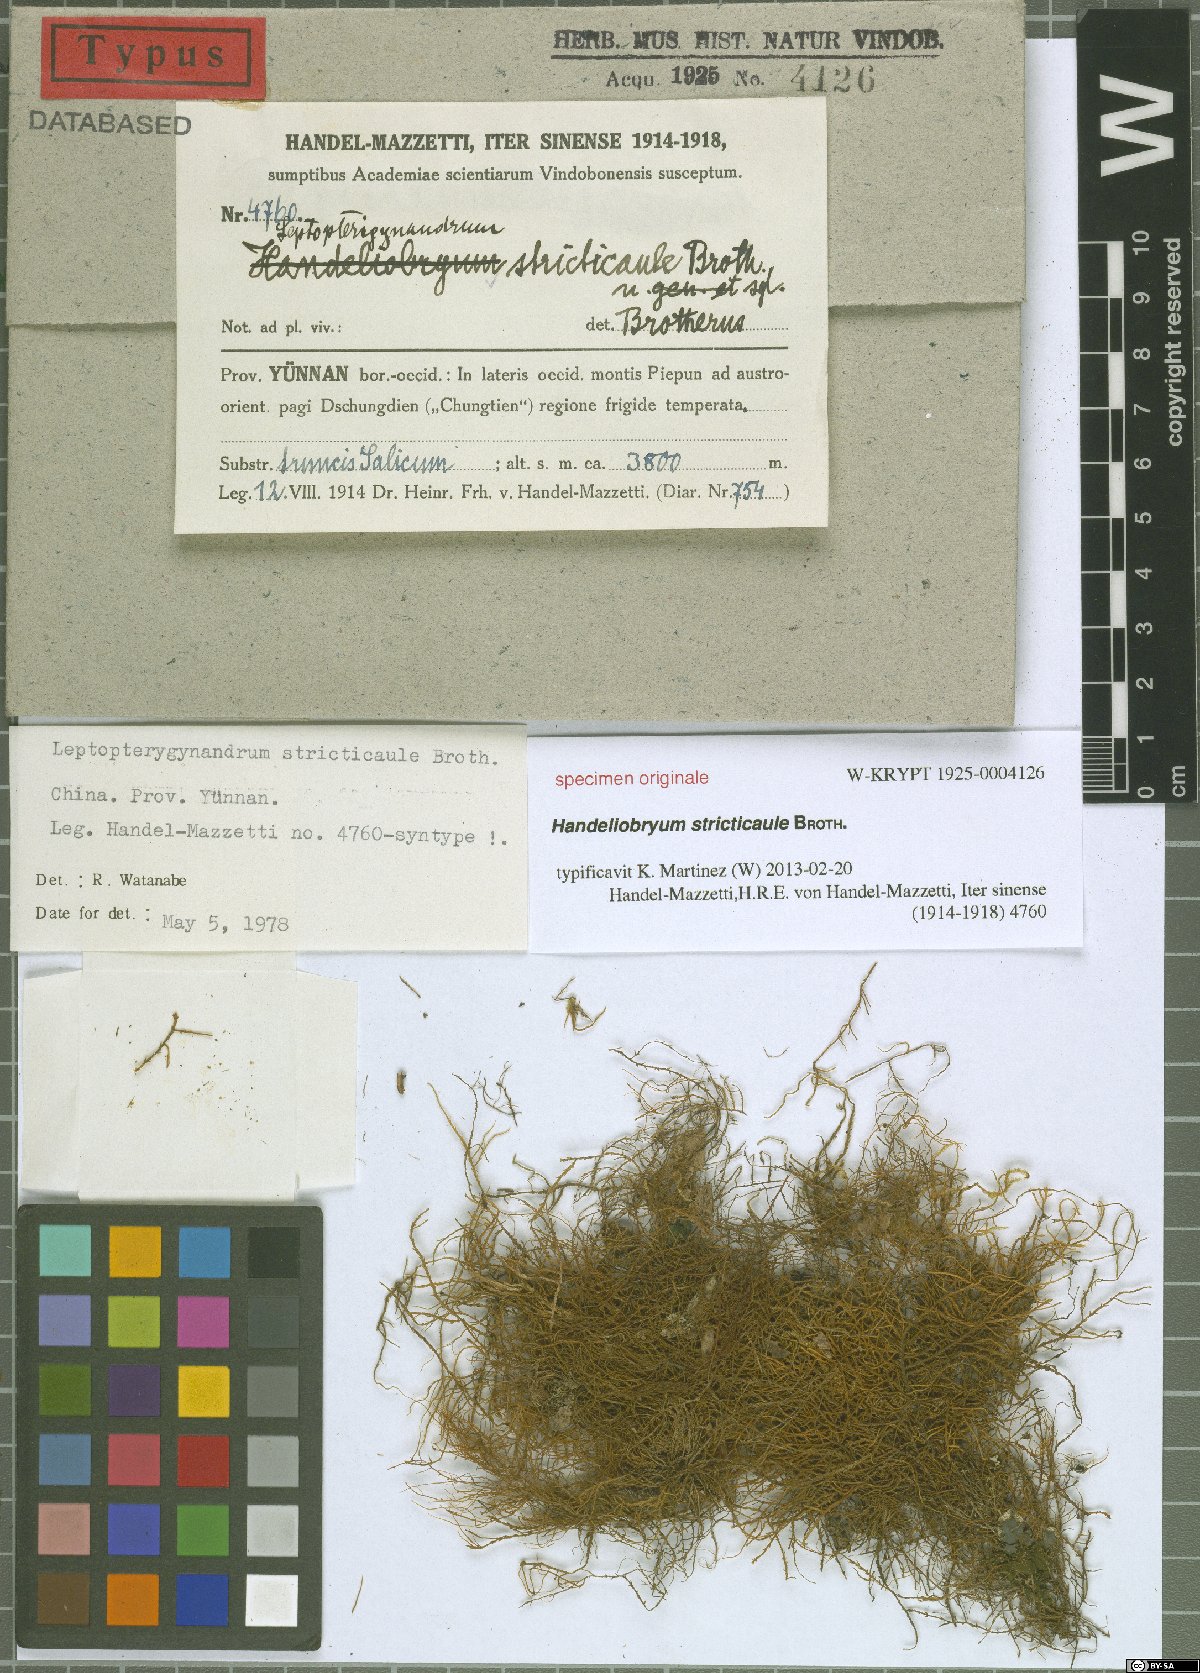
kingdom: Plantae
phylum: Bryophyta
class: Bryopsida
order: Hypnales
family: Taxiphyllaceae
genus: Leptopterigynandrum
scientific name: Leptopterigynandrum stricticaule
